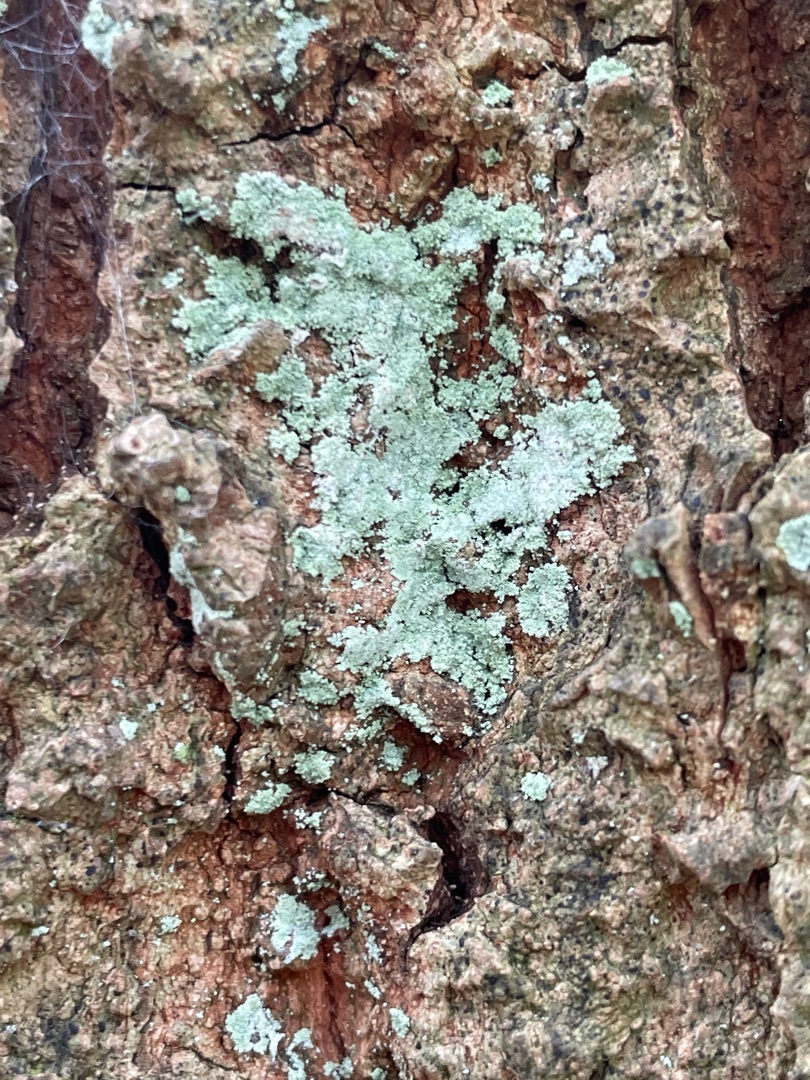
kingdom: Fungi
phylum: Ascomycota
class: Lecanoromycetes
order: Lecanorales
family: Stereocaulaceae
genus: Lepraria
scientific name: Lepraria
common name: Støvlav
